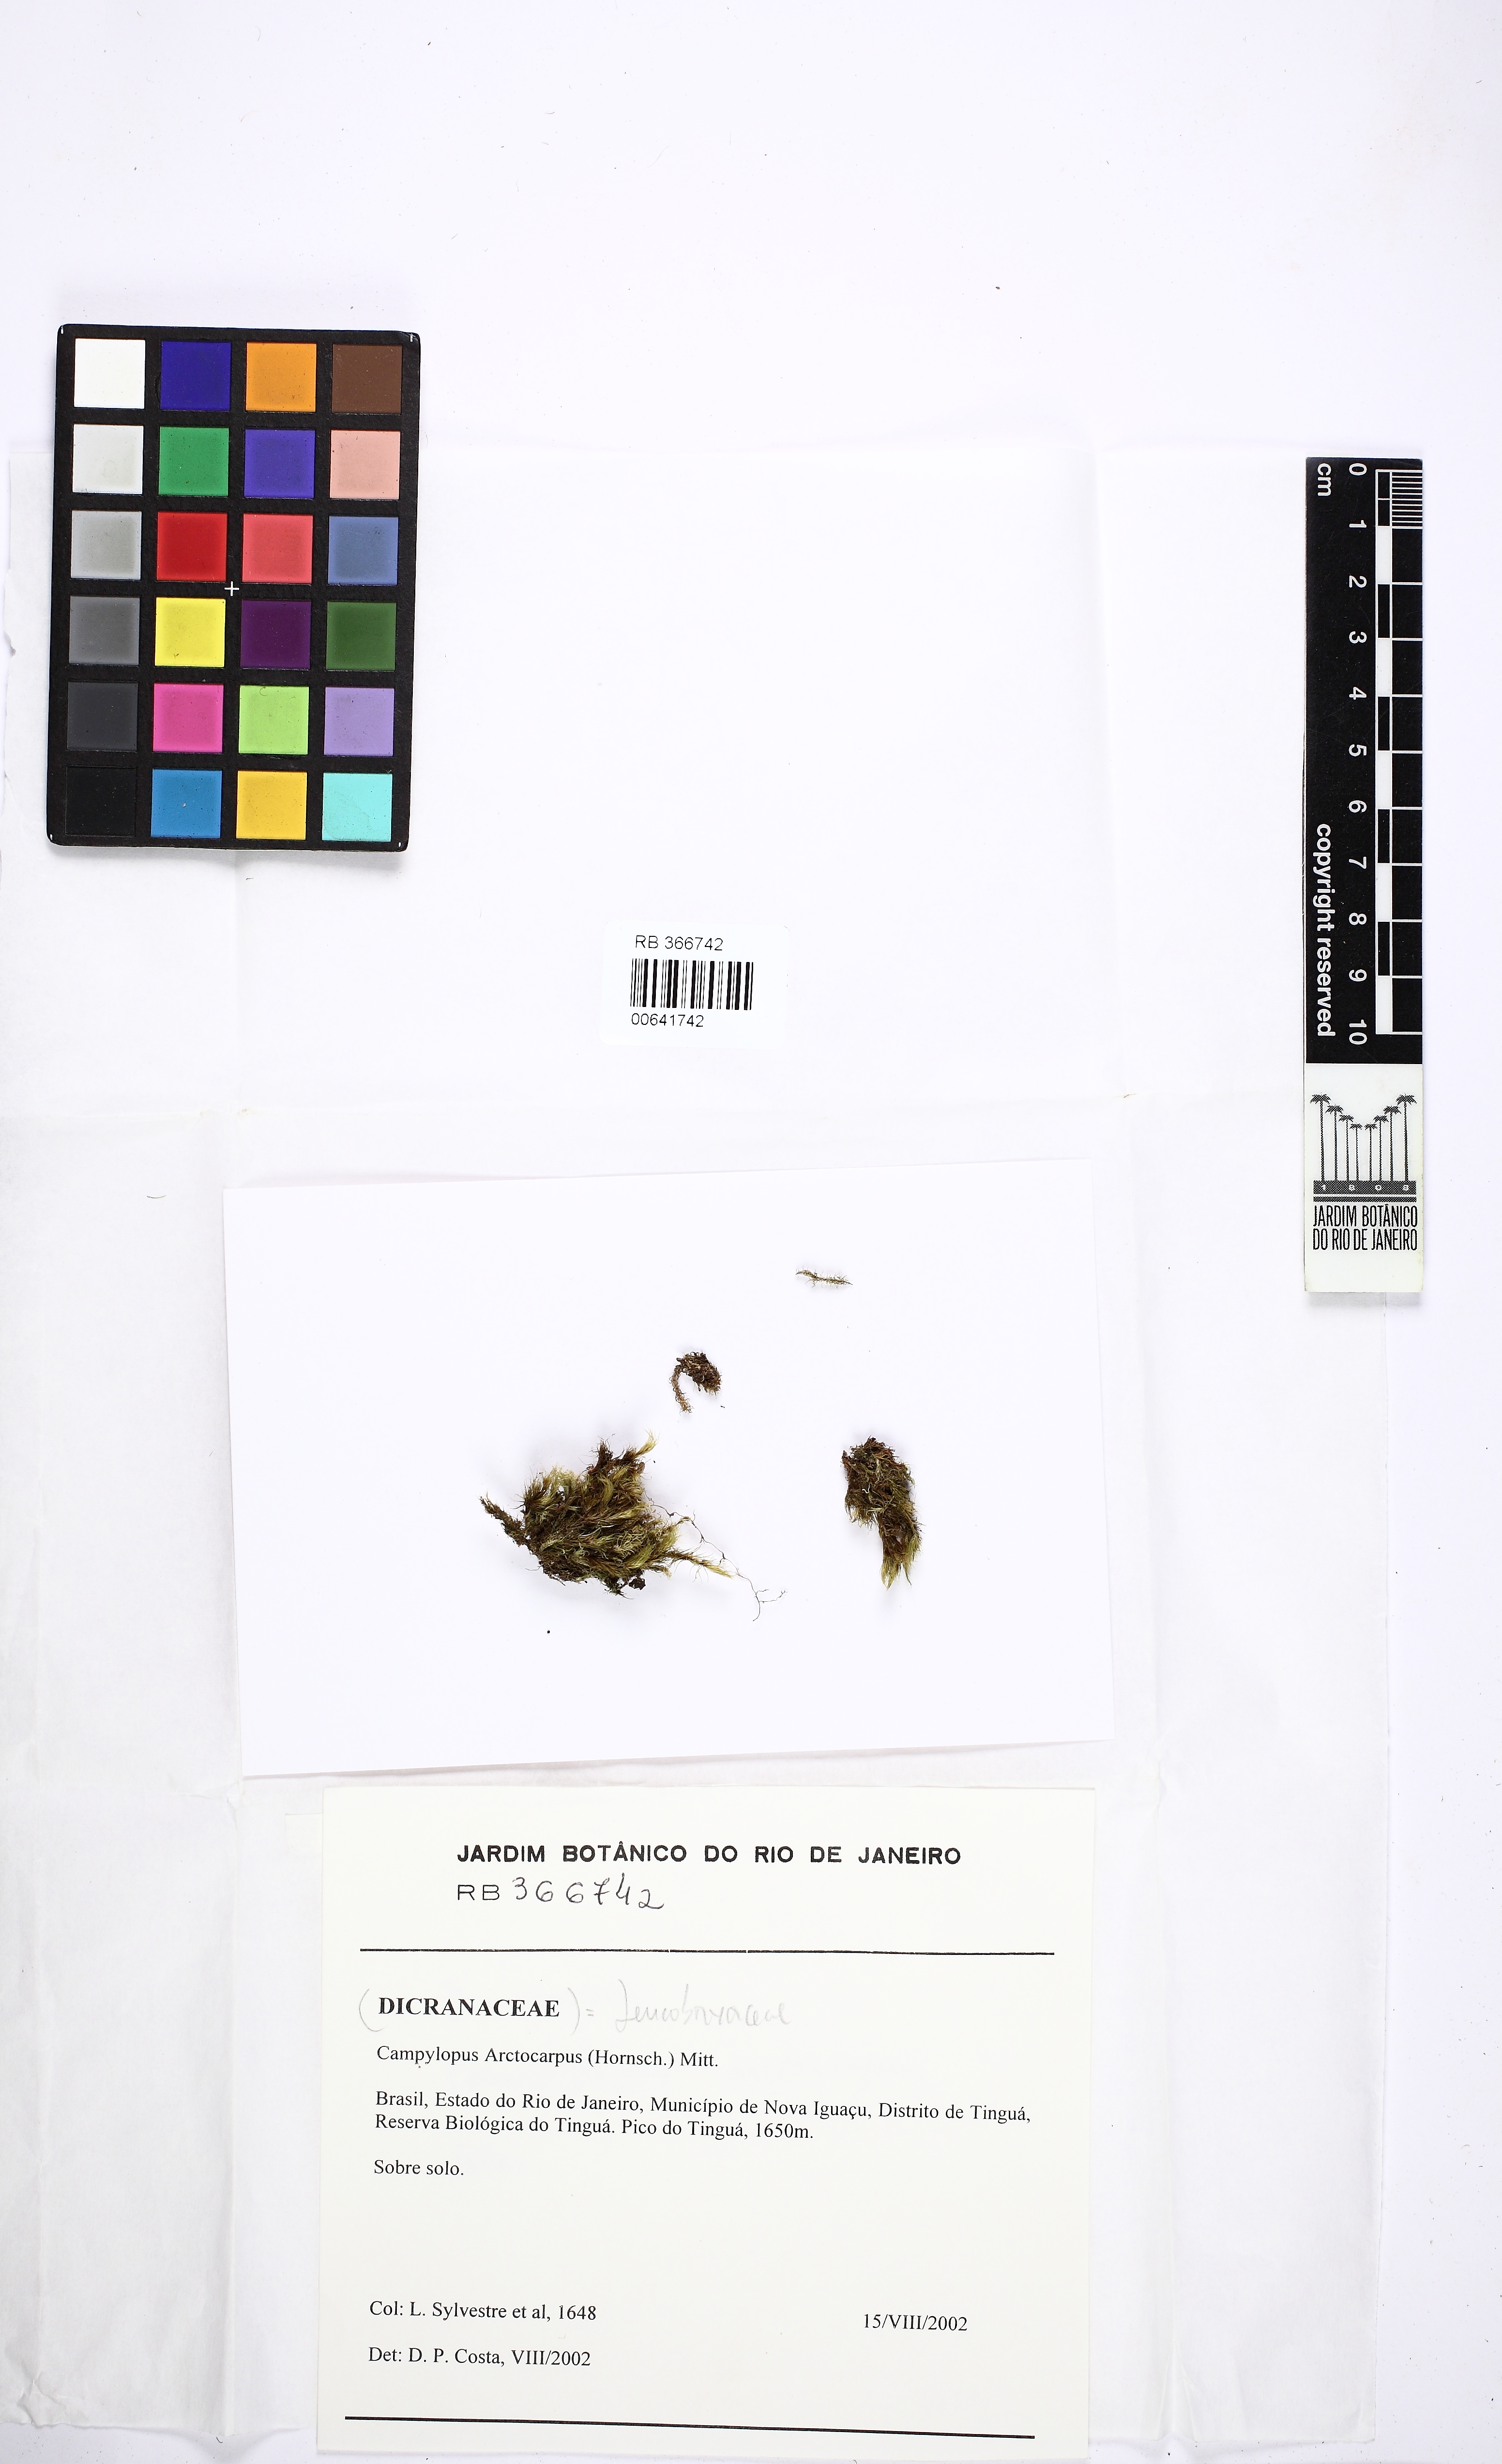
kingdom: Plantae
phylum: Bryophyta
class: Bryopsida
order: Dicranales
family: Leucobryaceae
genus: Campylopus
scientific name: Campylopus arctocarpus
